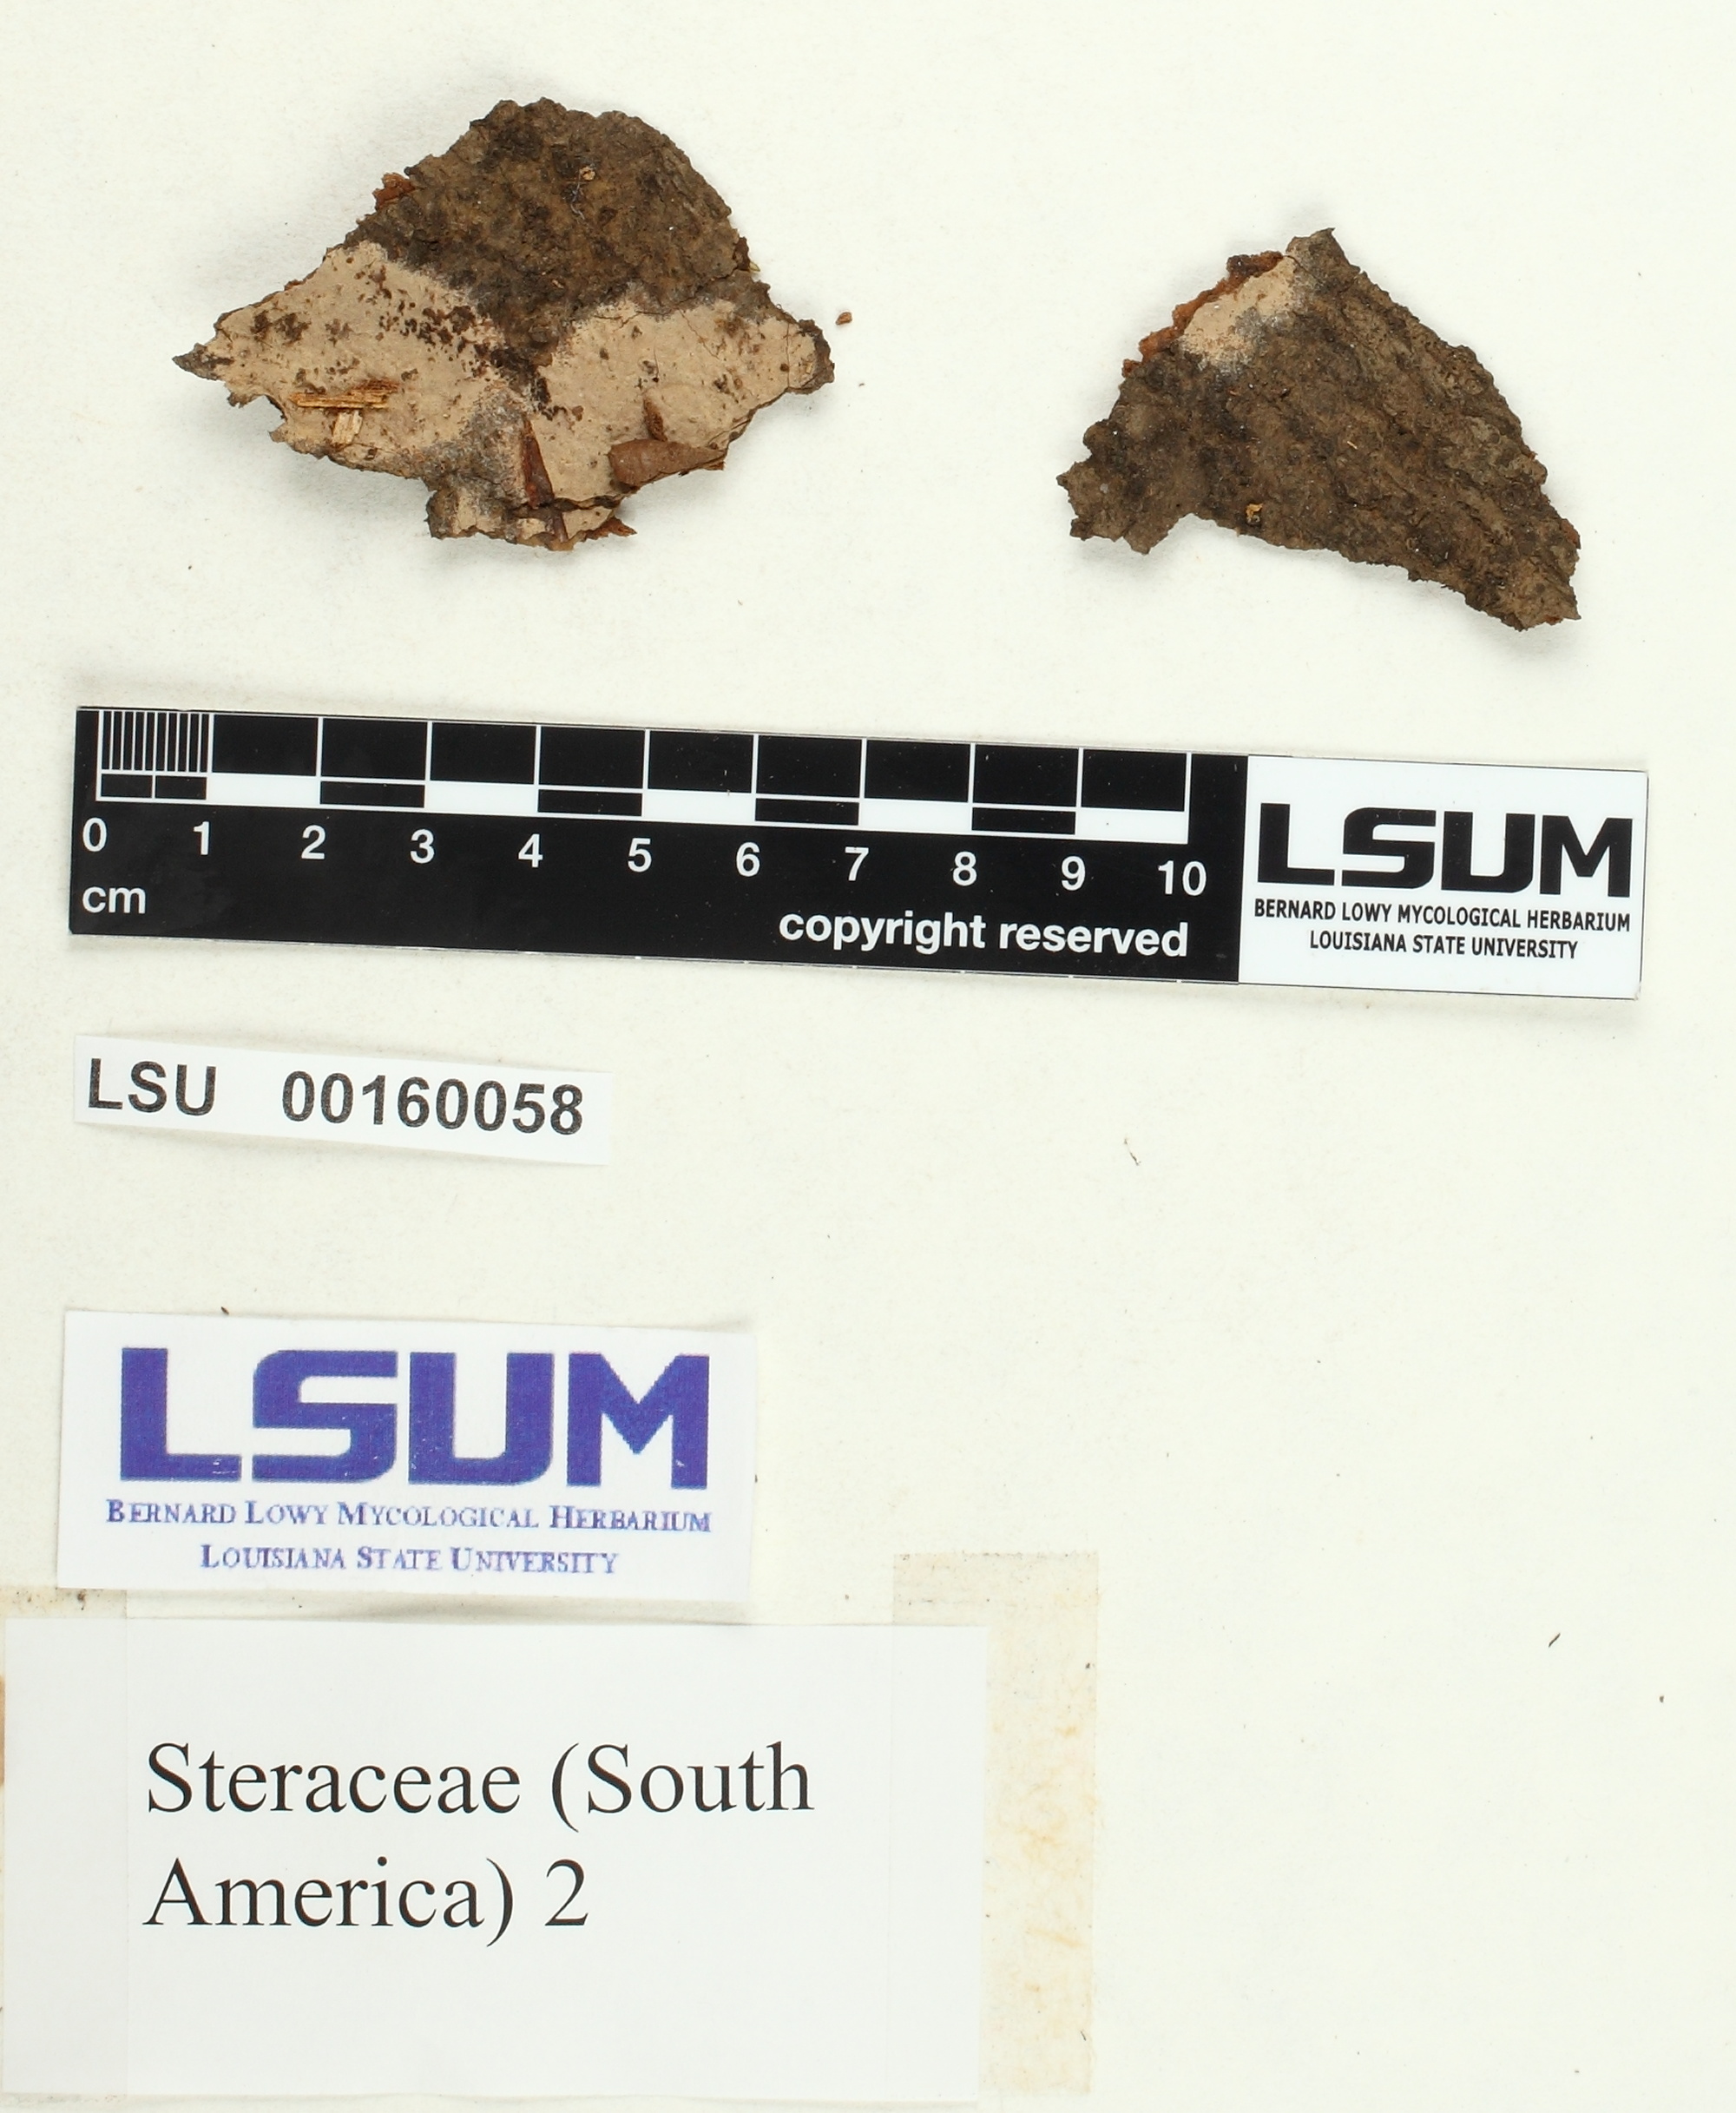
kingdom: Fungi
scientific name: Fungi
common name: Fungi
